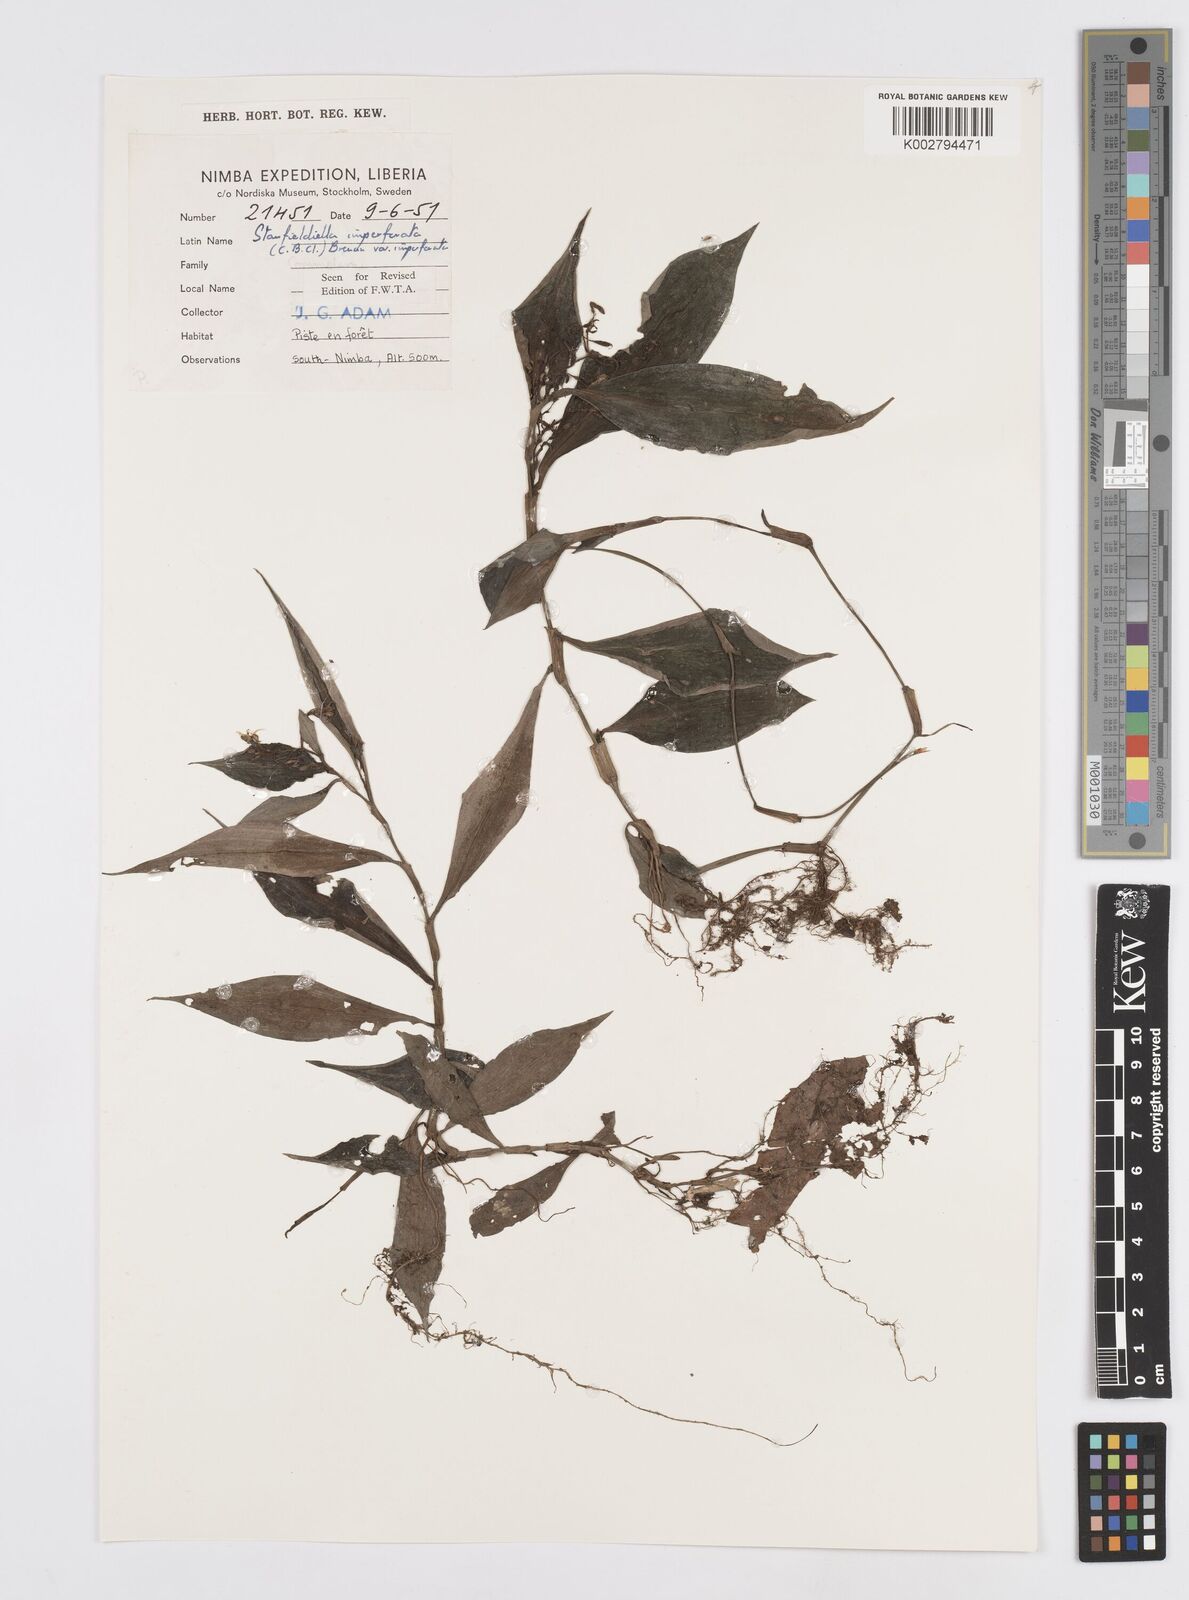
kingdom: Plantae
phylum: Tracheophyta
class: Liliopsida
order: Commelinales
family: Commelinaceae
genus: Stanfieldiella
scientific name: Stanfieldiella imperforata
